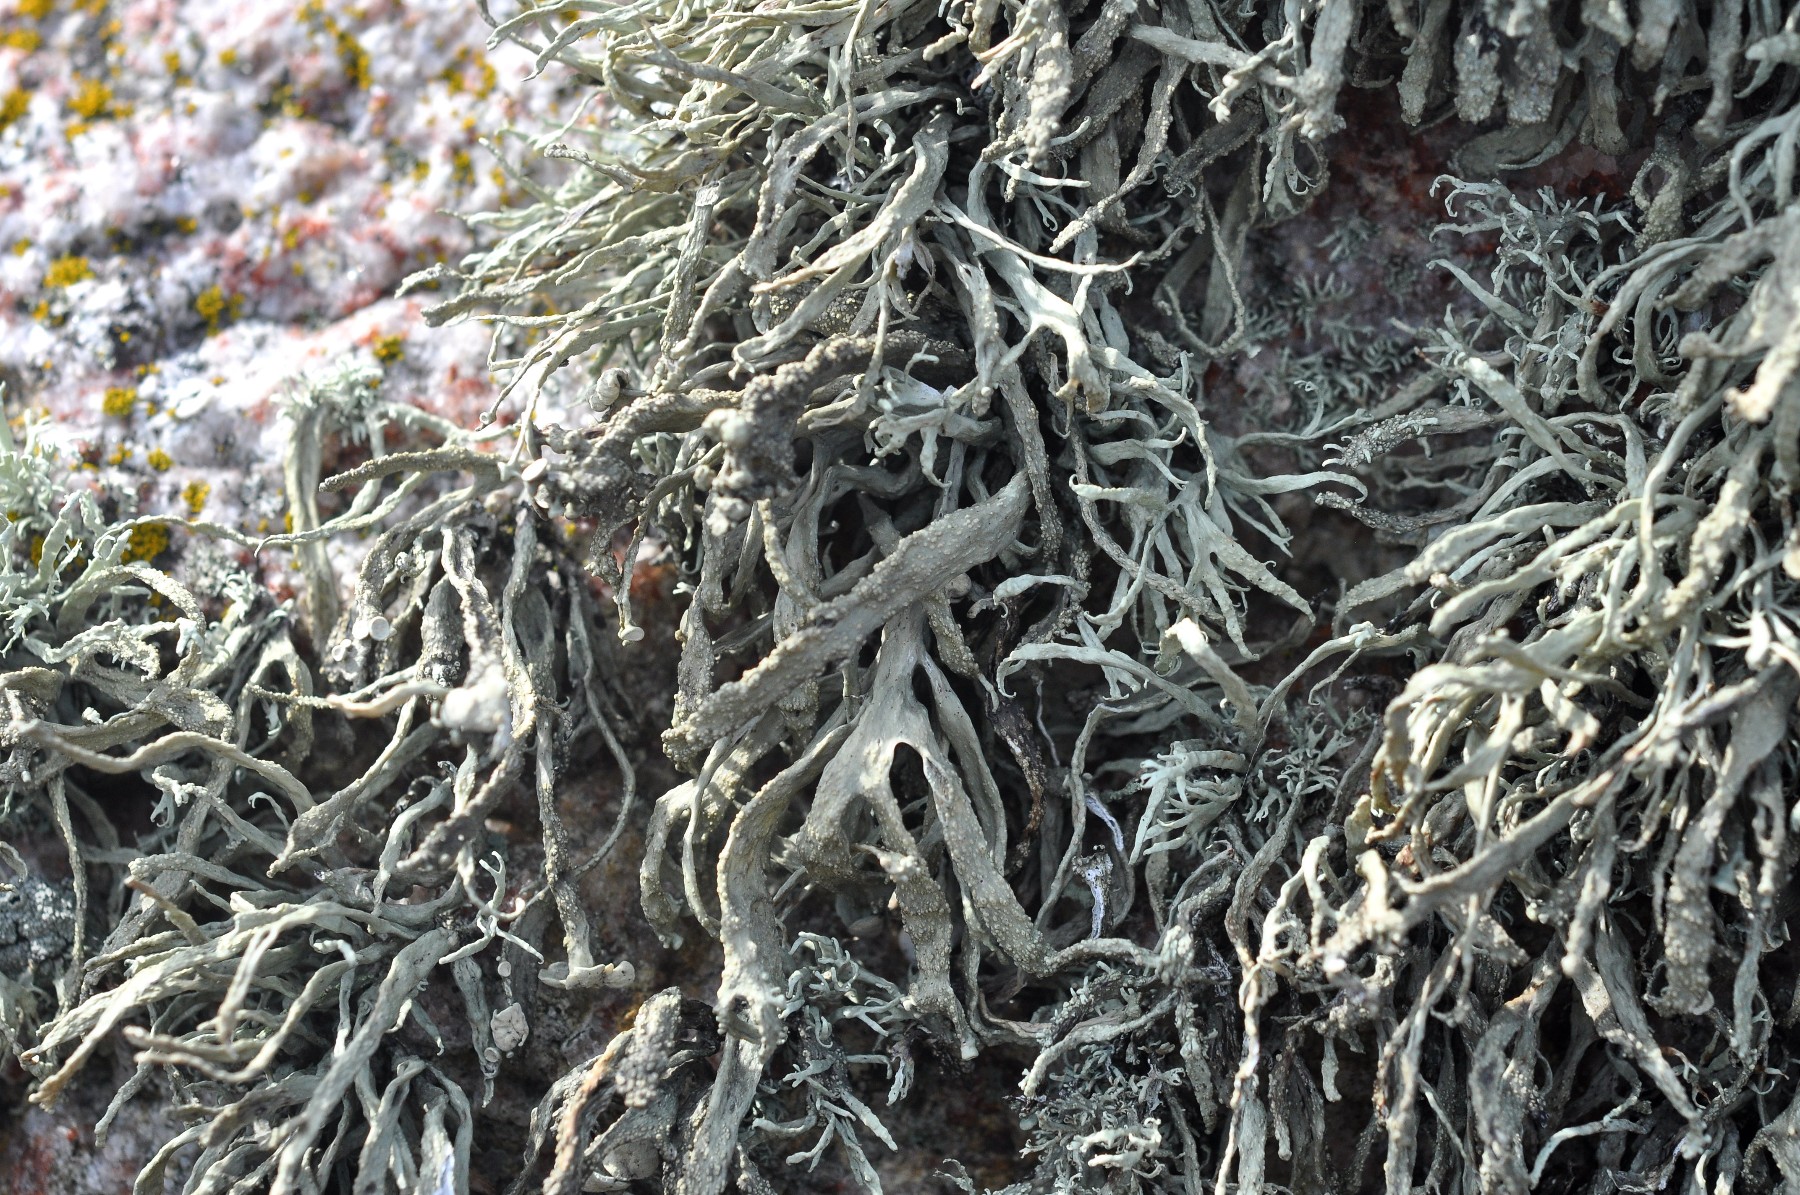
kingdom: Fungi
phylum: Ascomycota
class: Lecanoromycetes
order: Lecanorales
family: Ramalinaceae
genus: Ramalina
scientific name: Ramalina siliquosa
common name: klippe-grenlav
